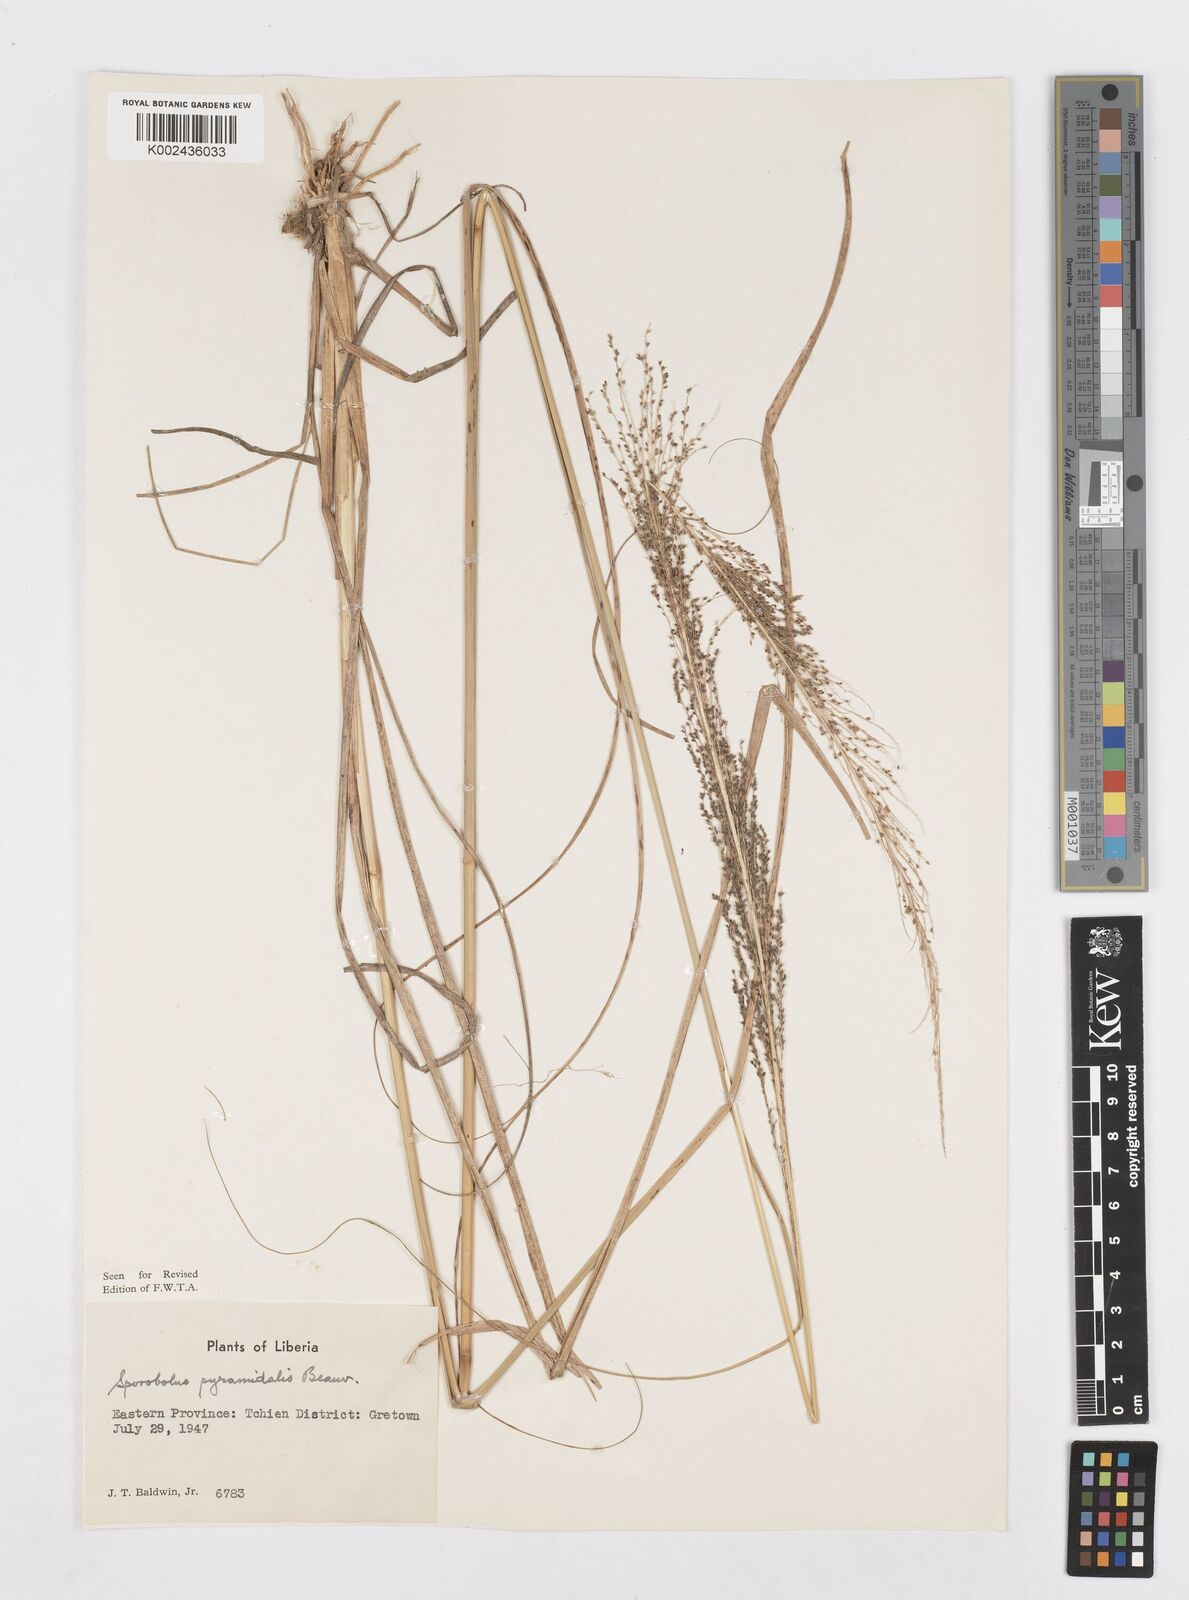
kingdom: Plantae
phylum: Tracheophyta
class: Liliopsida
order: Poales
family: Poaceae
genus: Sporobolus
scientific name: Sporobolus pyramidalis
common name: West indian dropseed
